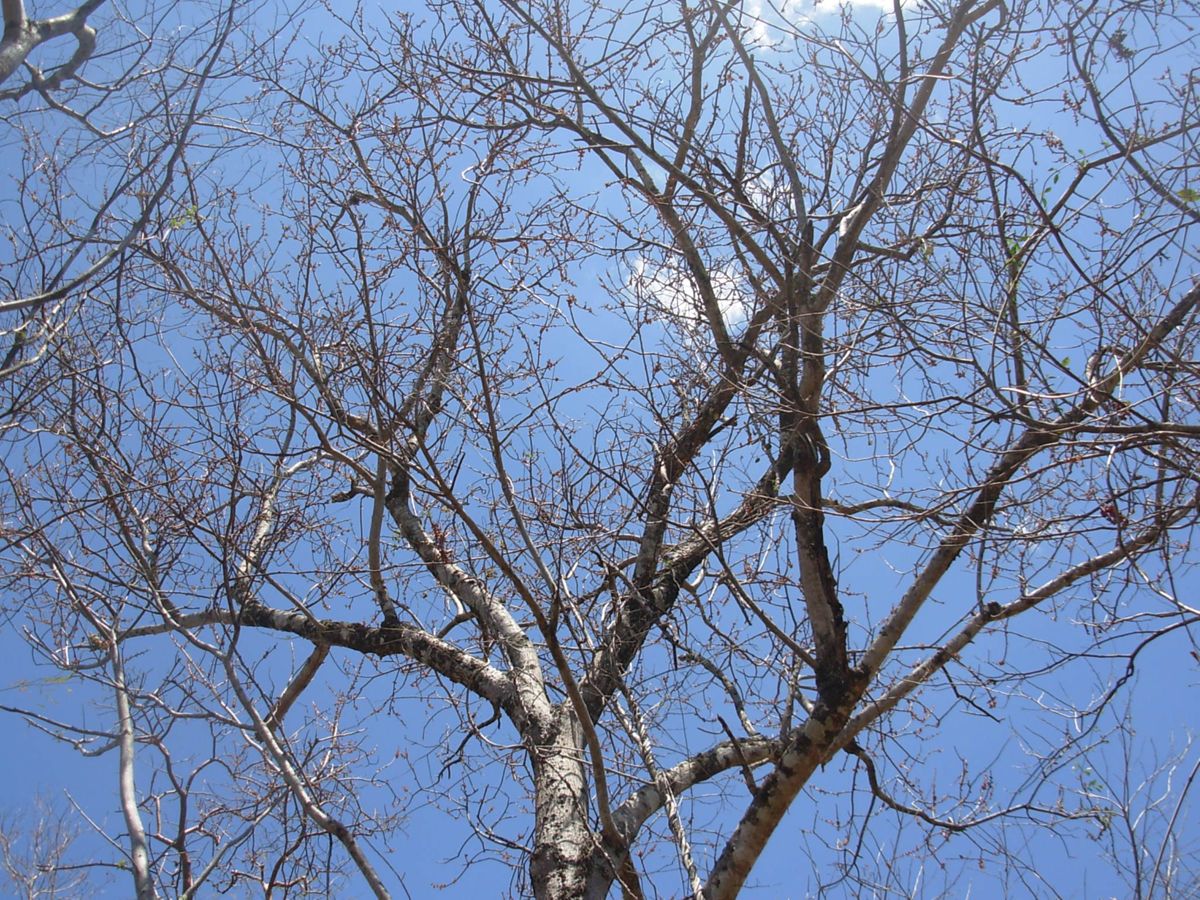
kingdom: Plantae
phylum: Tracheophyta
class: Magnoliopsida
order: Sapindales
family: Anacardiaceae
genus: Spondias
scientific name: Spondias purpurea
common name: Purple mombin
